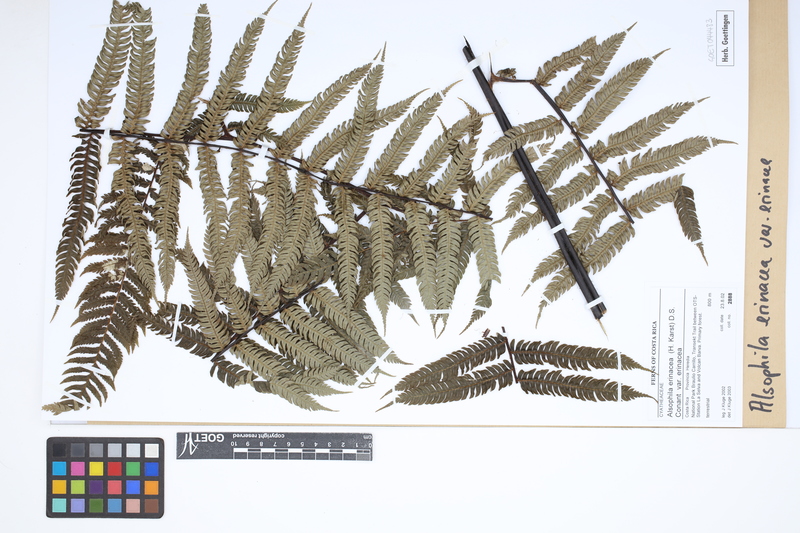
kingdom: Plantae
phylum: Tracheophyta
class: Polypodiopsida
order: Cyatheales
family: Cyatheaceae
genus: Alsophila
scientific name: Alsophila erinacea
